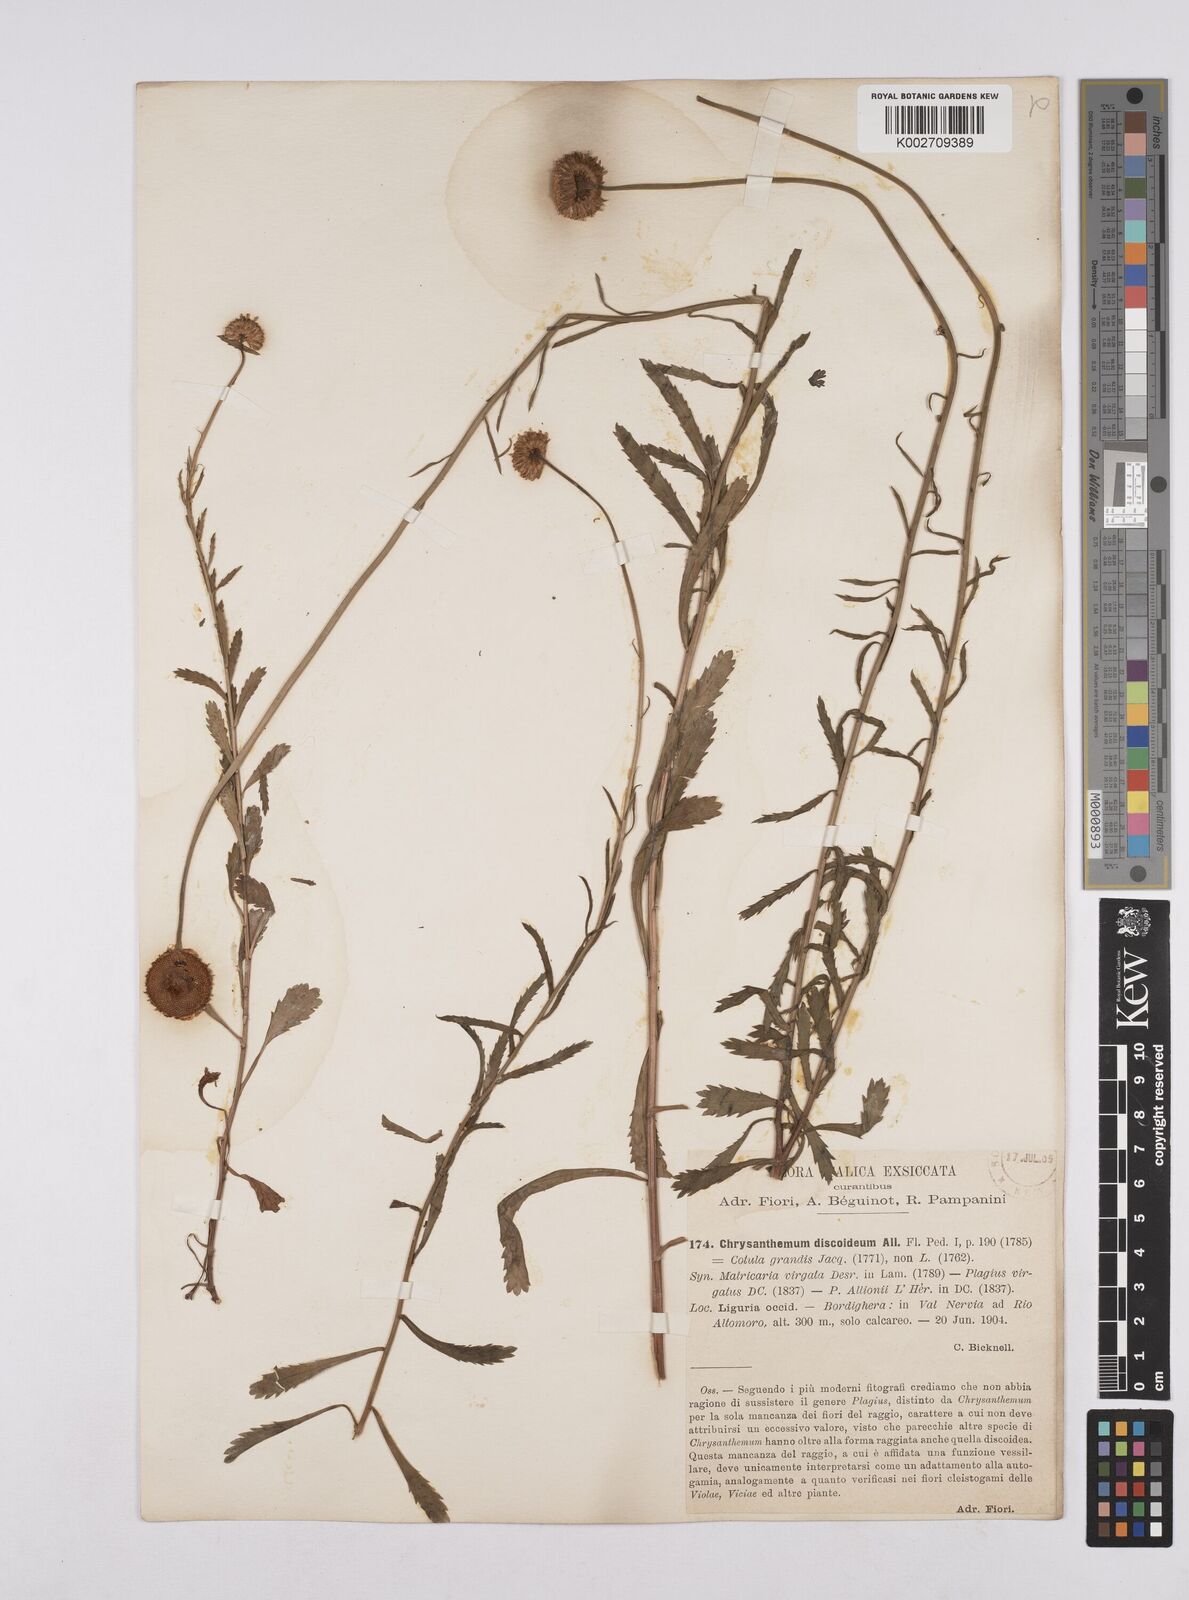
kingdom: Plantae
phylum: Tracheophyta
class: Magnoliopsida
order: Asterales
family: Asteraceae
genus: Leucanthemum
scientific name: Leucanthemum vulgare
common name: Oxeye daisy
